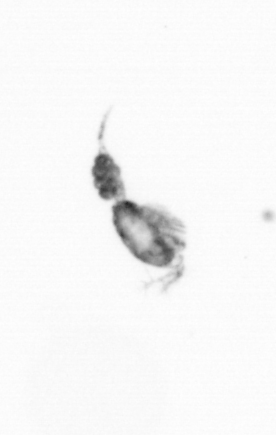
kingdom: Animalia
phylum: Arthropoda
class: Copepoda
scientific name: Copepoda
